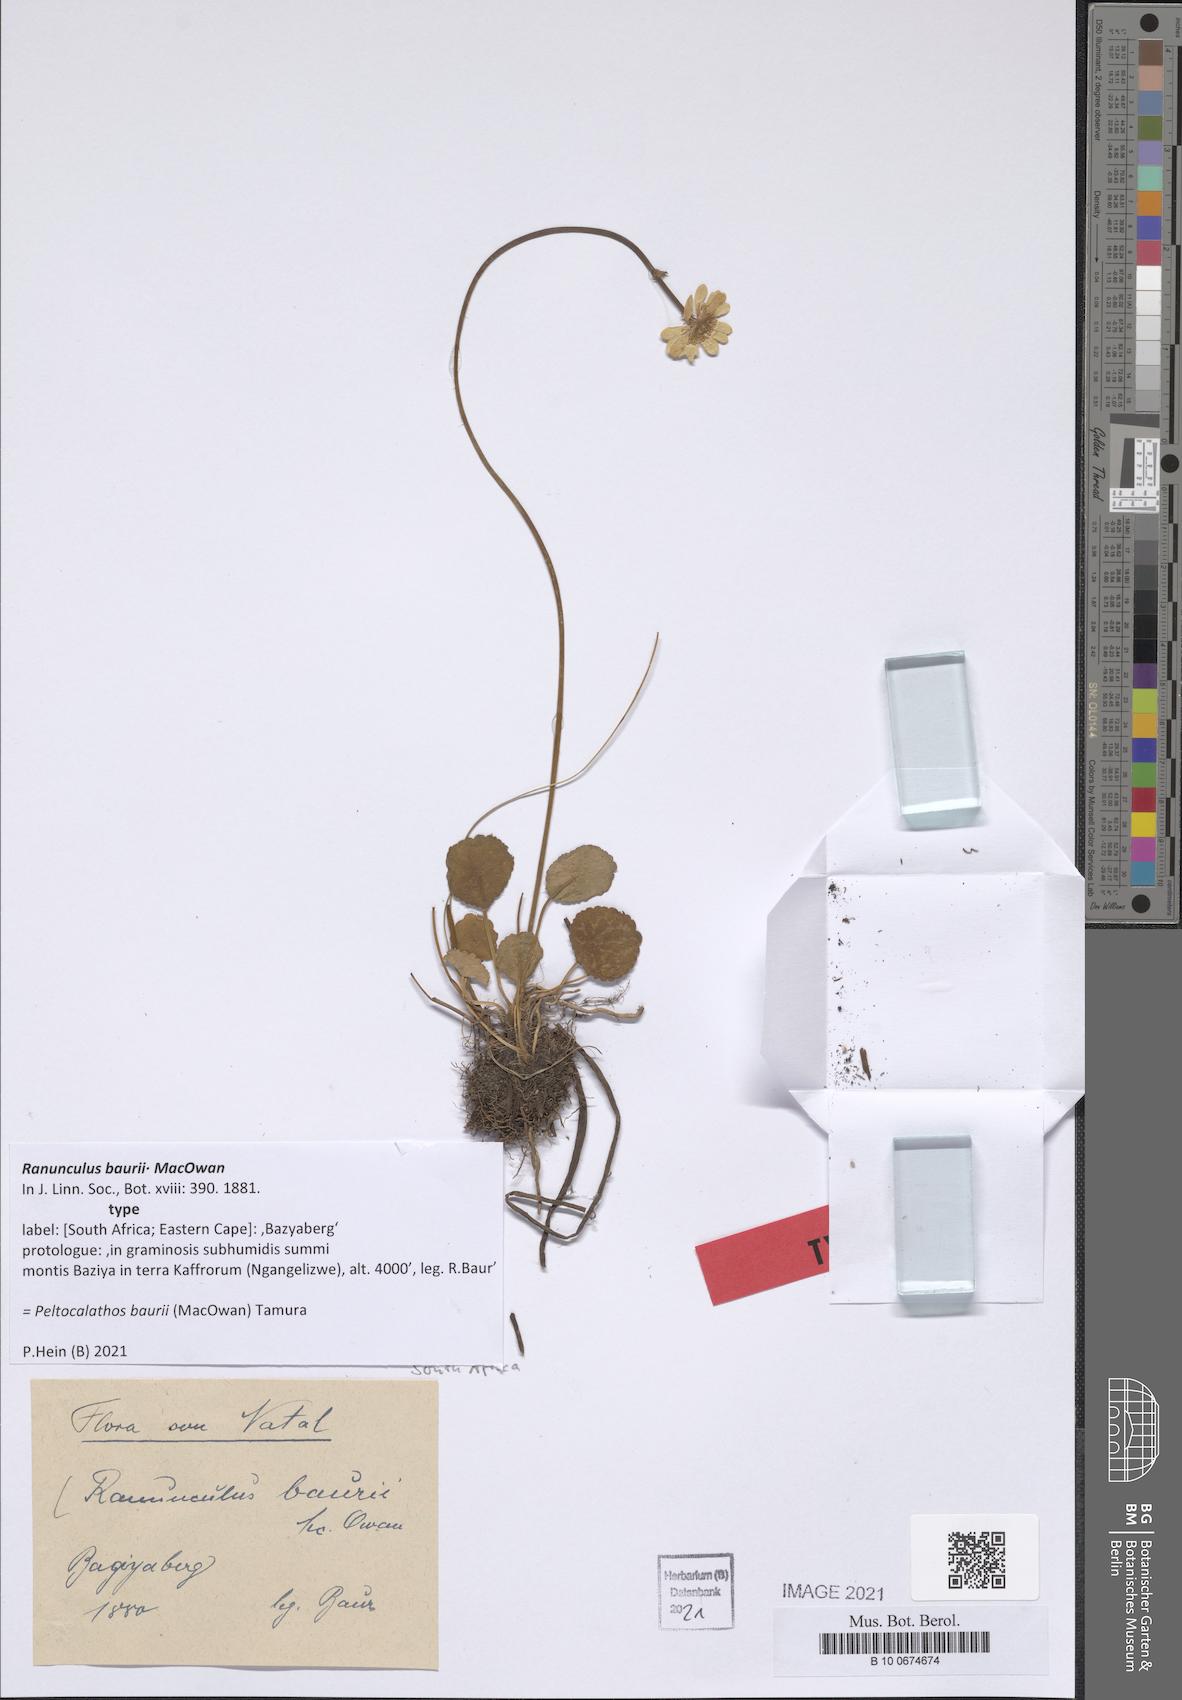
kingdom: Plantae
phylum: Tracheophyta
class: Magnoliopsida
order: Ranunculales
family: Ranunculaceae
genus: Peltocalathos
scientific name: Peltocalathos baurii
